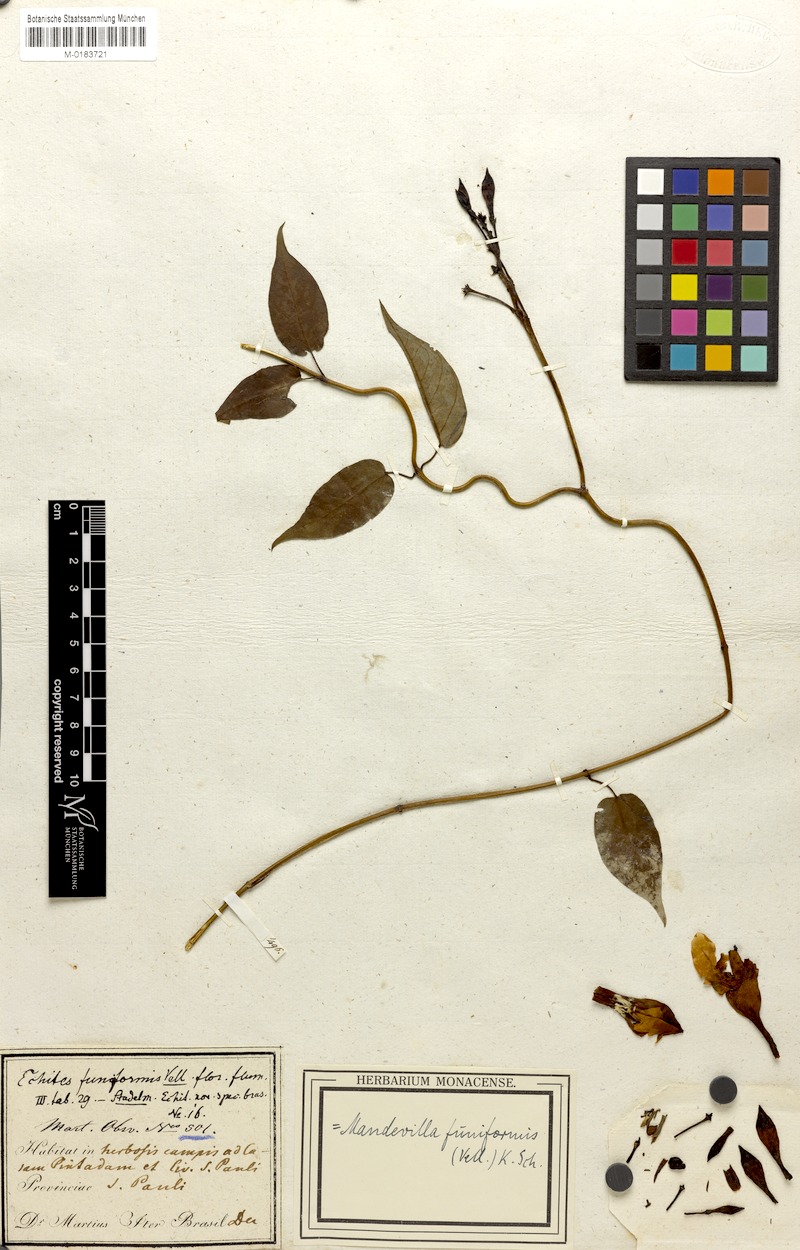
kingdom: Plantae
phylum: Tracheophyta
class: Magnoliopsida
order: Gentianales
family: Apocynaceae
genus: Mandevilla
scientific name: Mandevilla funiformis
